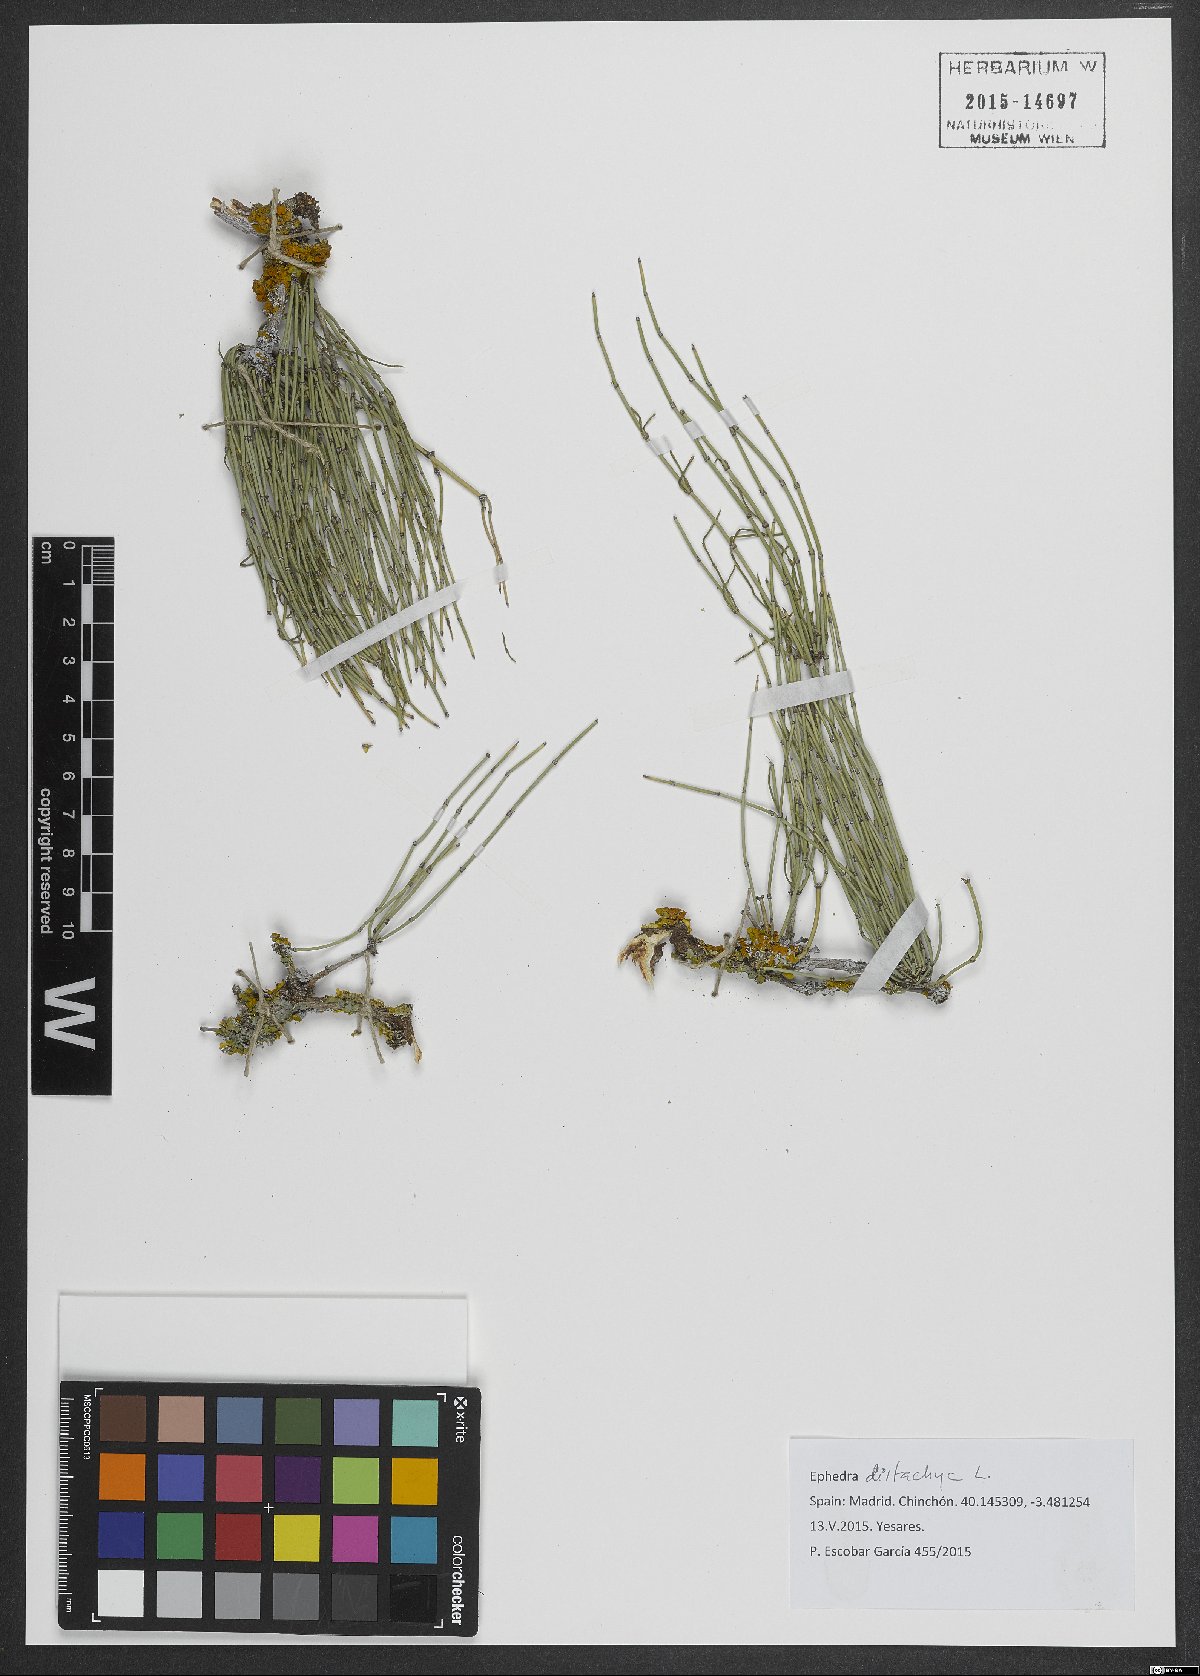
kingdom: Plantae
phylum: Tracheophyta
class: Gnetopsida
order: Ephedrales
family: Ephedraceae
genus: Ephedra
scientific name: Ephedra distachya
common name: Sea grape
